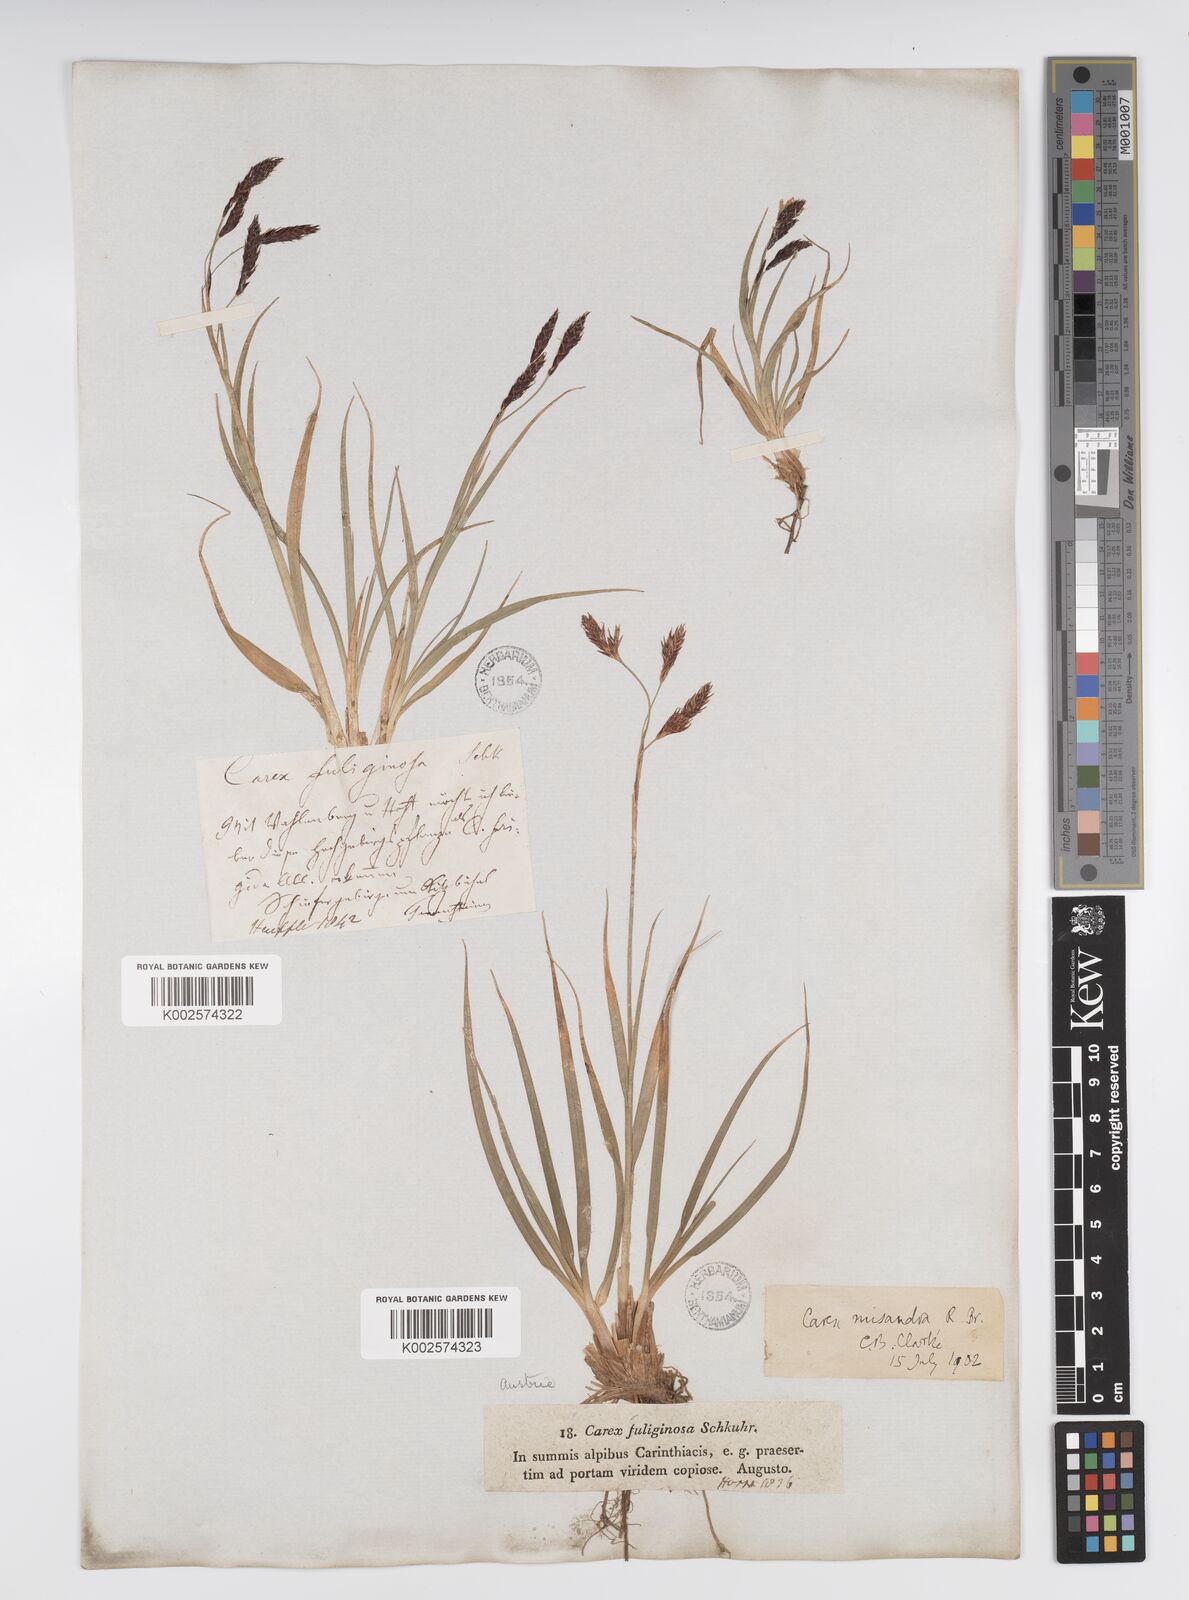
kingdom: Plantae
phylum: Tracheophyta
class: Liliopsida
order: Poales
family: Cyperaceae
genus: Carex
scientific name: Carex fuliginosa
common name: Few-flowered sedge
